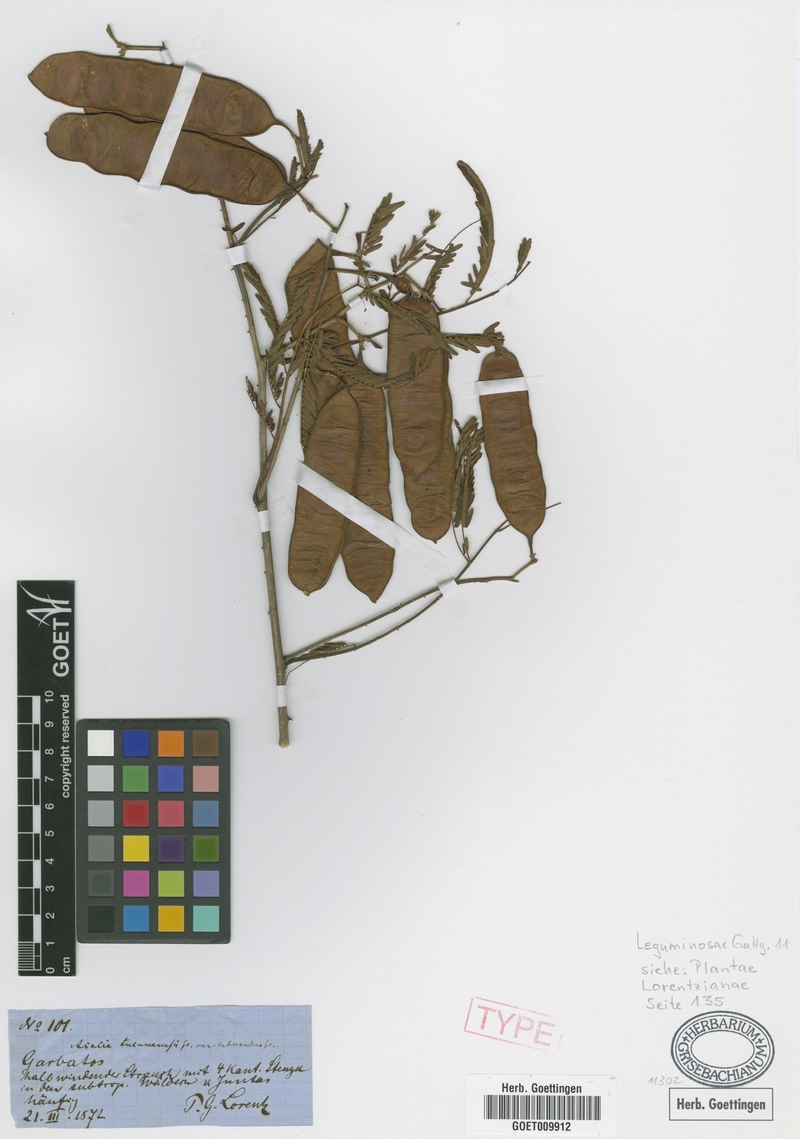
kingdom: Plantae
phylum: Tracheophyta
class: Magnoliopsida
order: Fabales
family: Fabaceae
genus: Senegalia
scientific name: Senegalia tucumanensis
